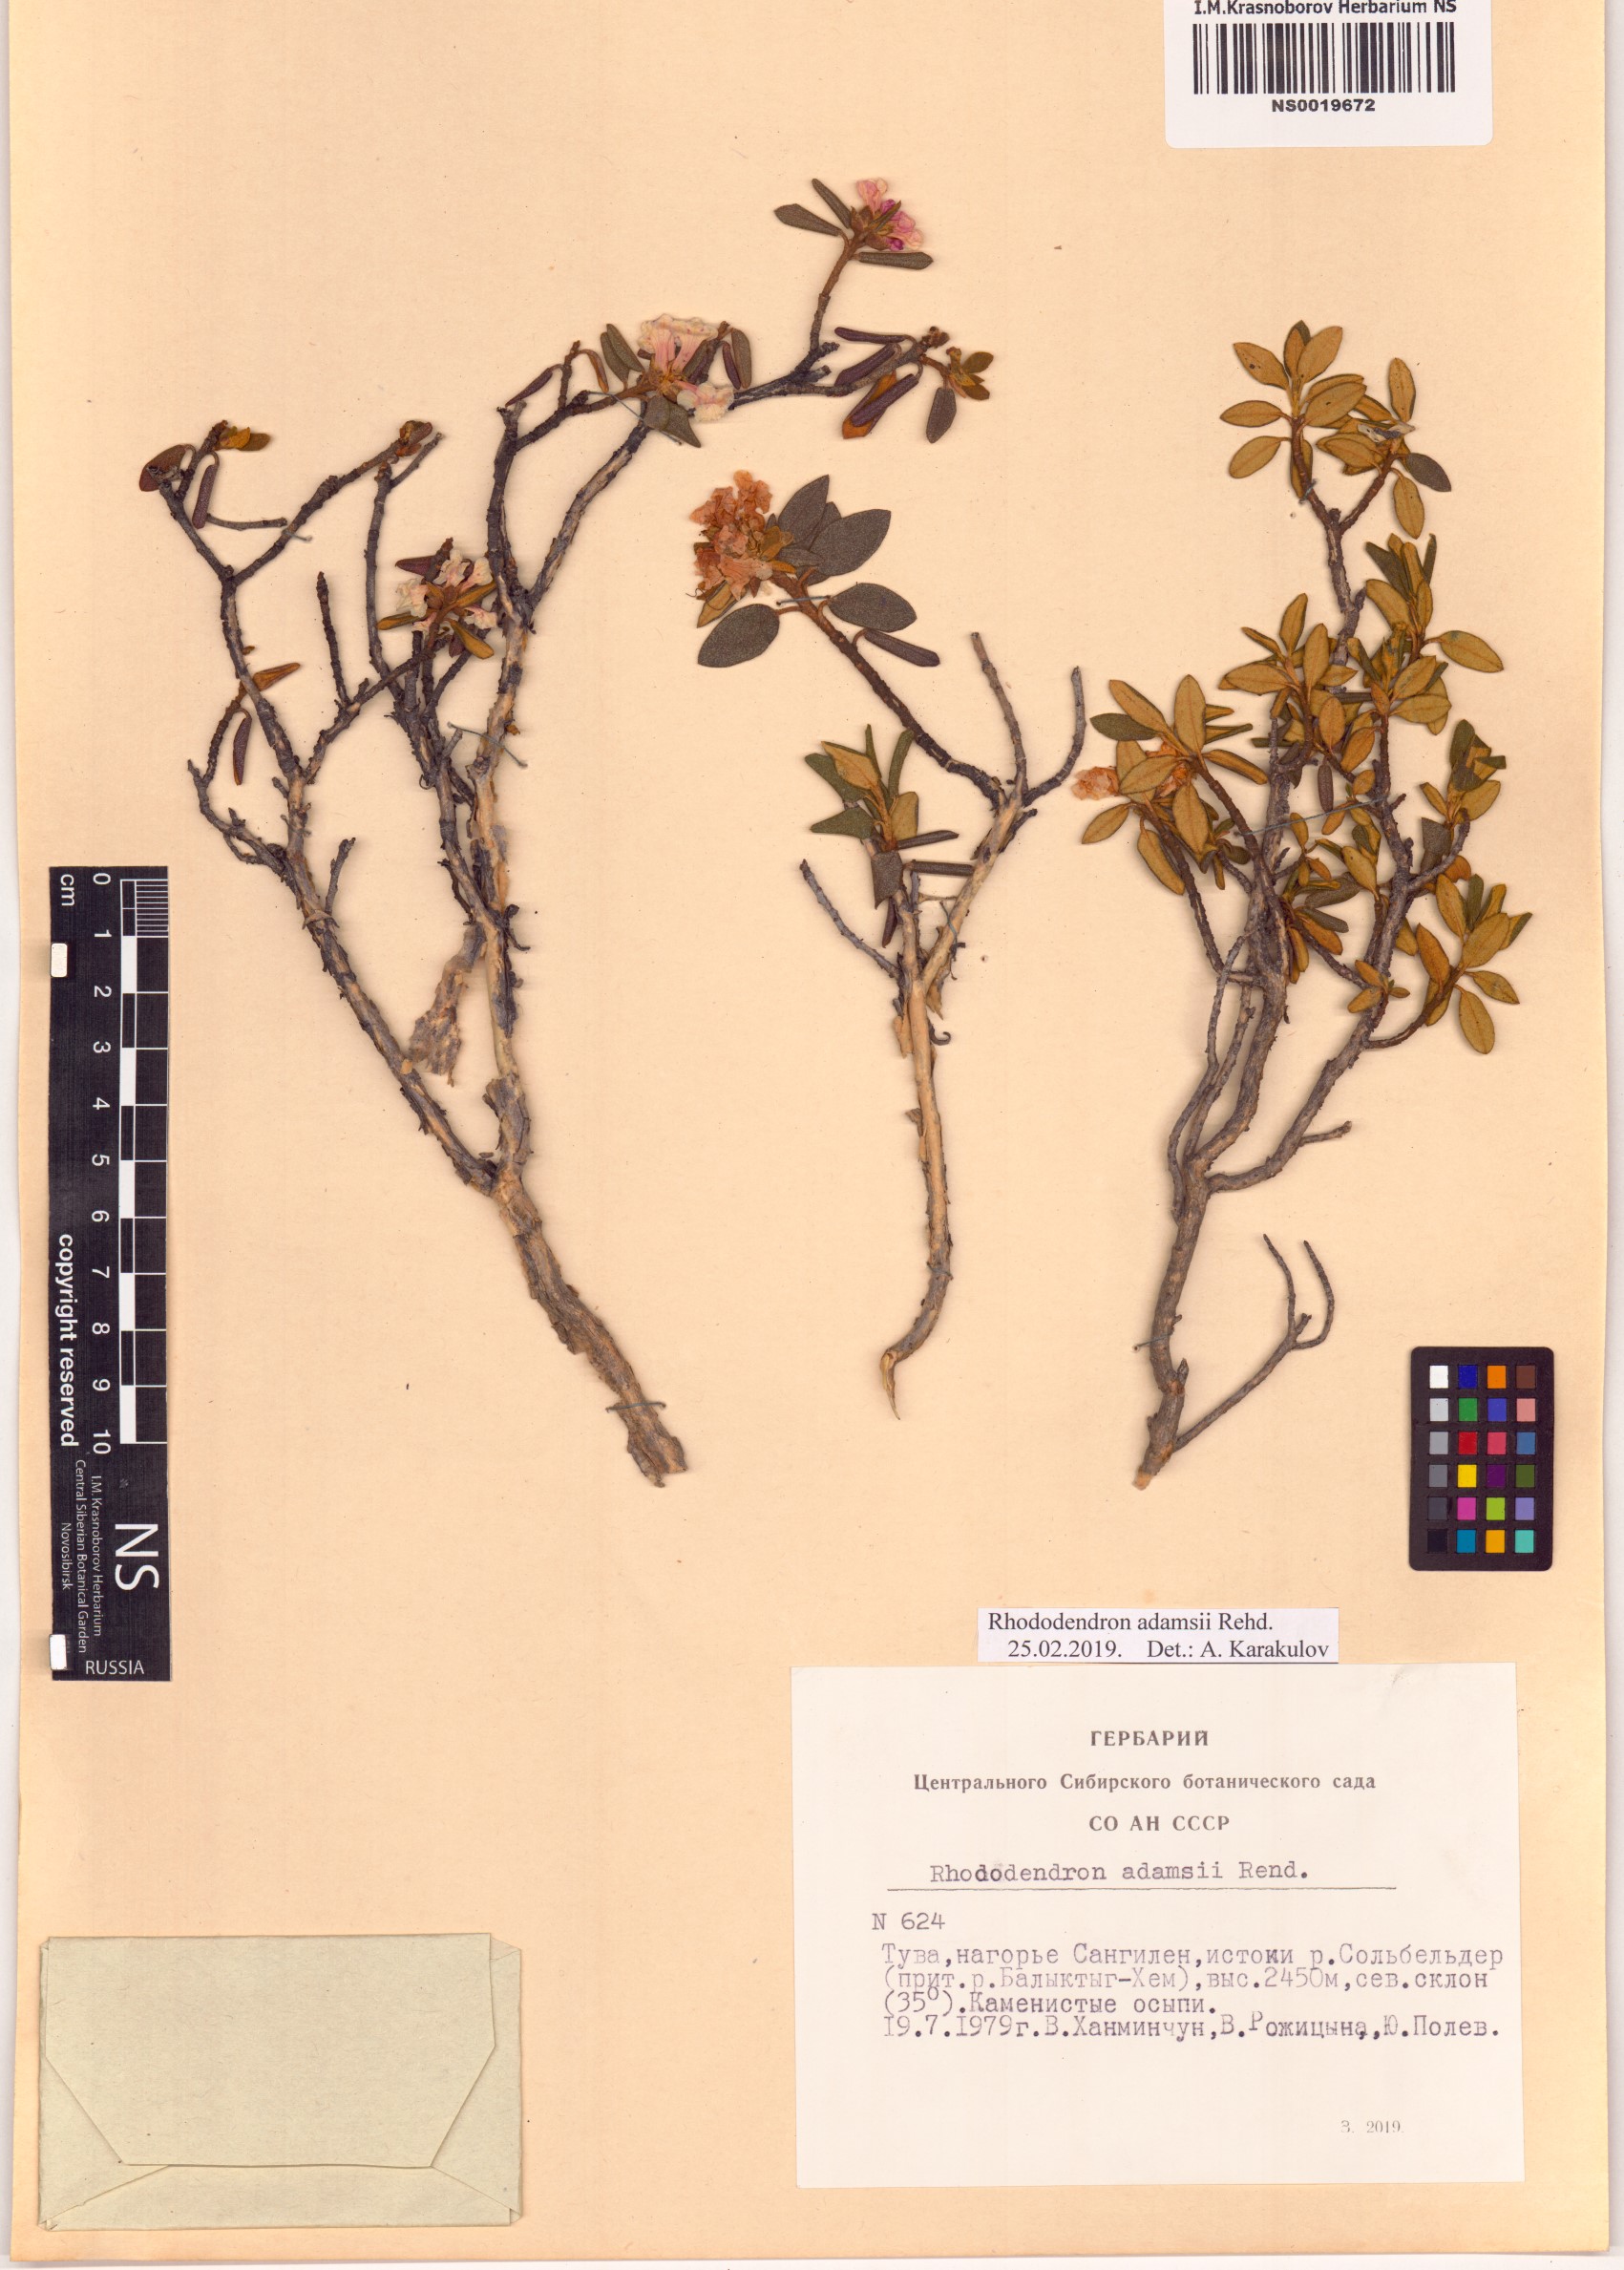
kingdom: Plantae
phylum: Tracheophyta
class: Magnoliopsida
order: Ericales
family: Ericaceae
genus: Rhododendron
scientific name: Rhododendron adamsii
